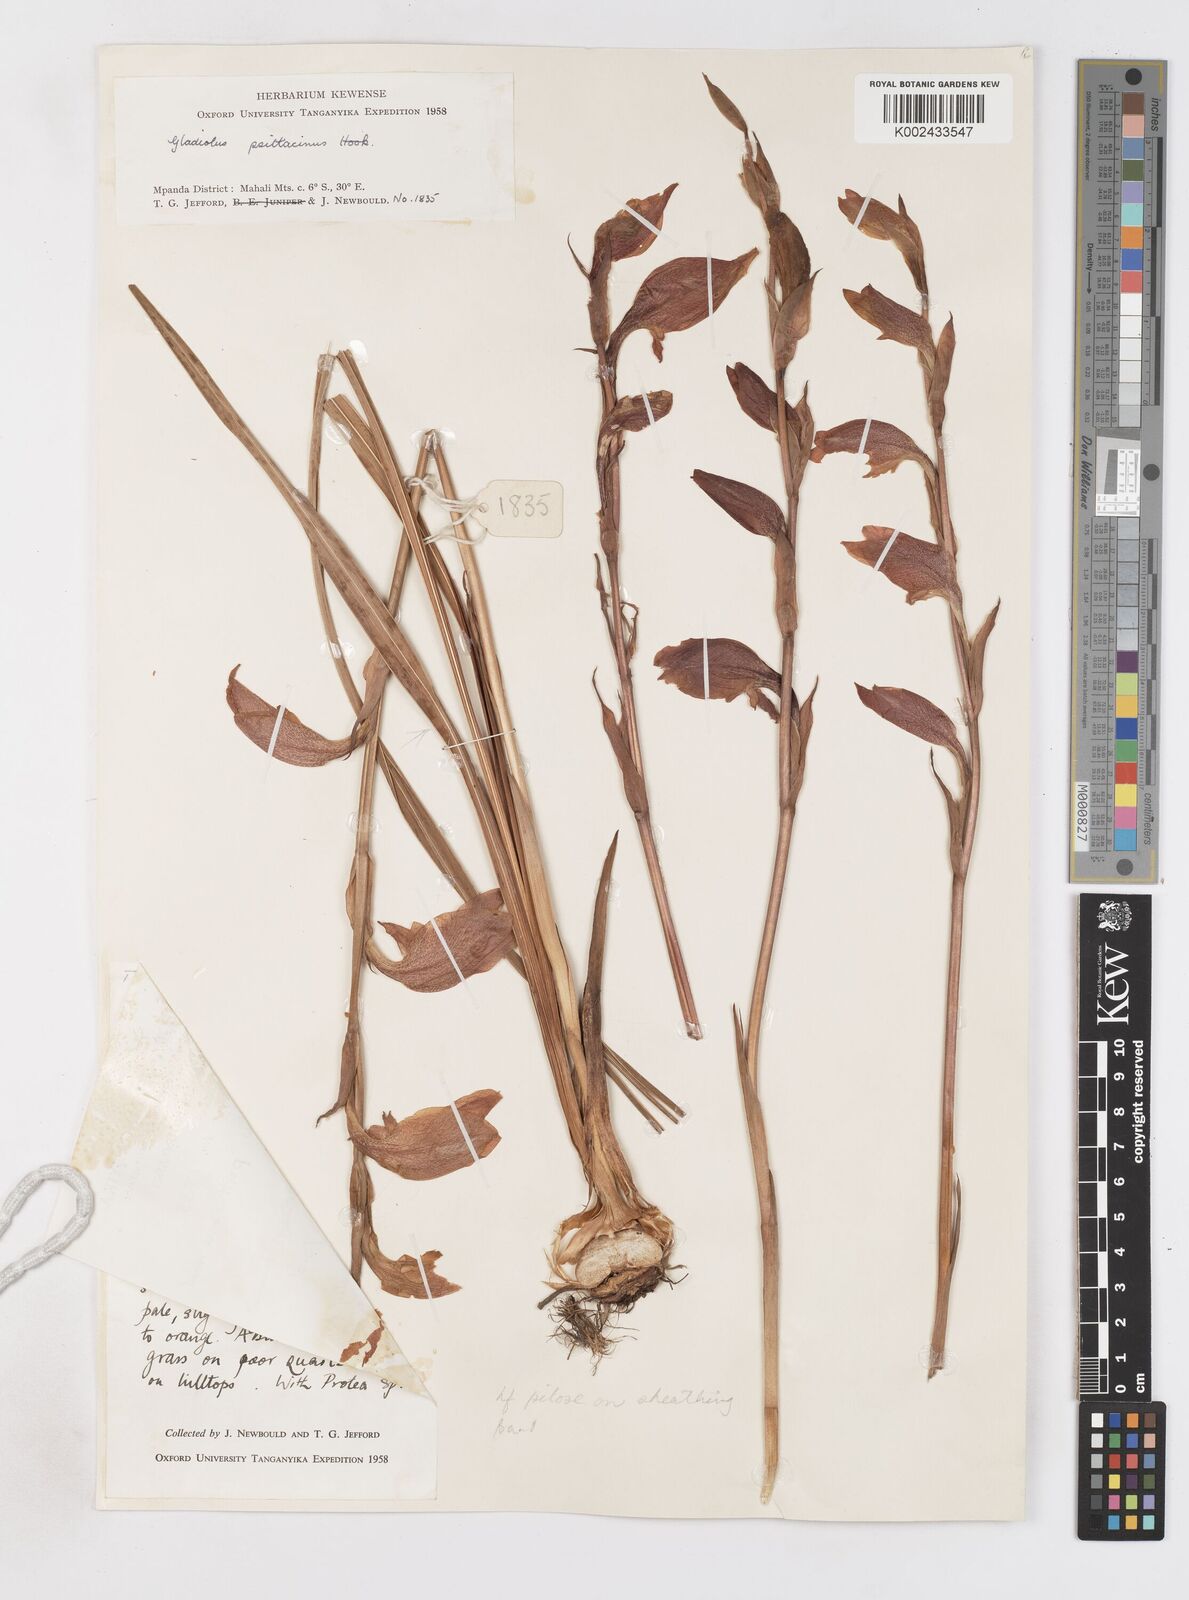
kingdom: Plantae
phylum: Tracheophyta
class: Liliopsida
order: Asparagales
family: Iridaceae
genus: Gladiolus
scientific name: Gladiolus dalenii
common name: Cornflag
